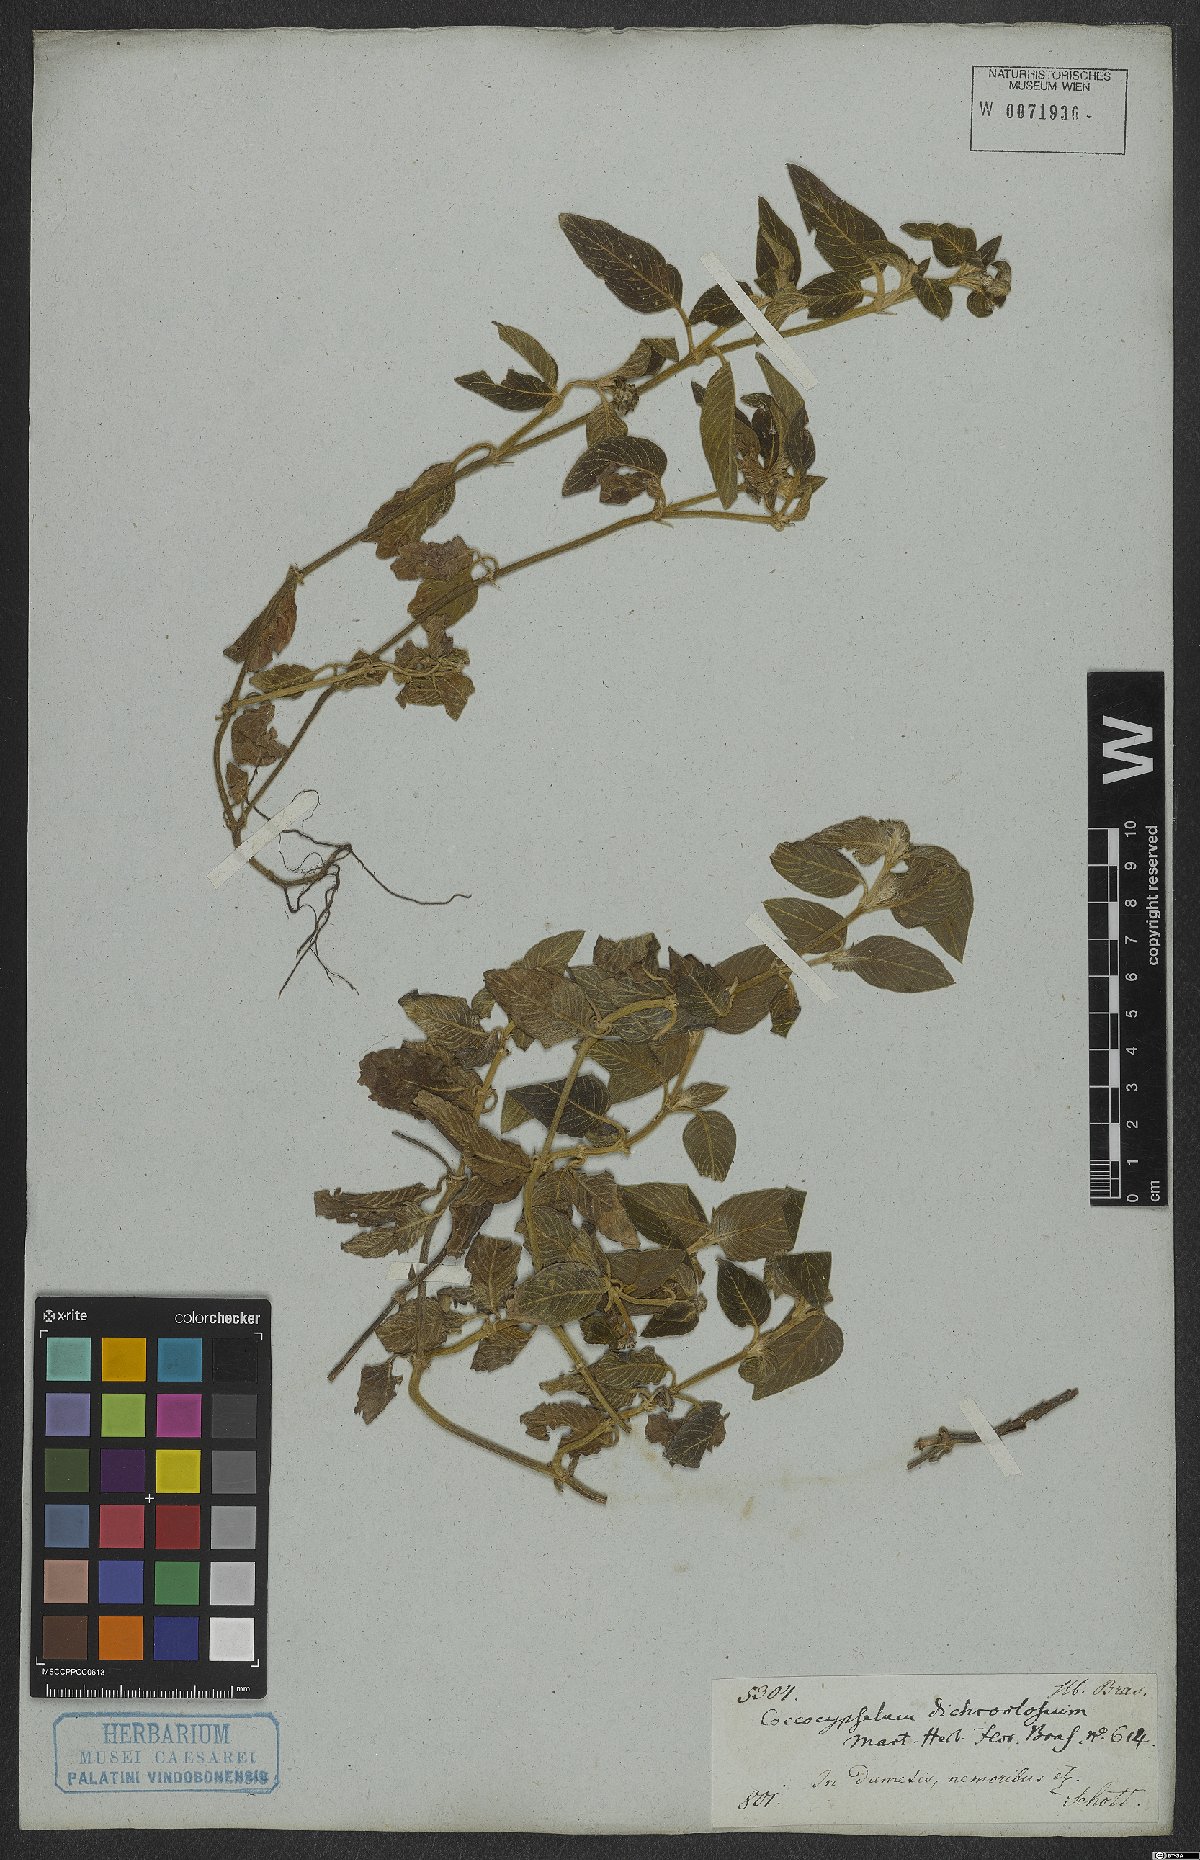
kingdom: Plantae
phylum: Tracheophyta
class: Magnoliopsida
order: Gentianales
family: Rubiaceae
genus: Coccocypselum
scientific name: Coccocypselum lanceolatum
